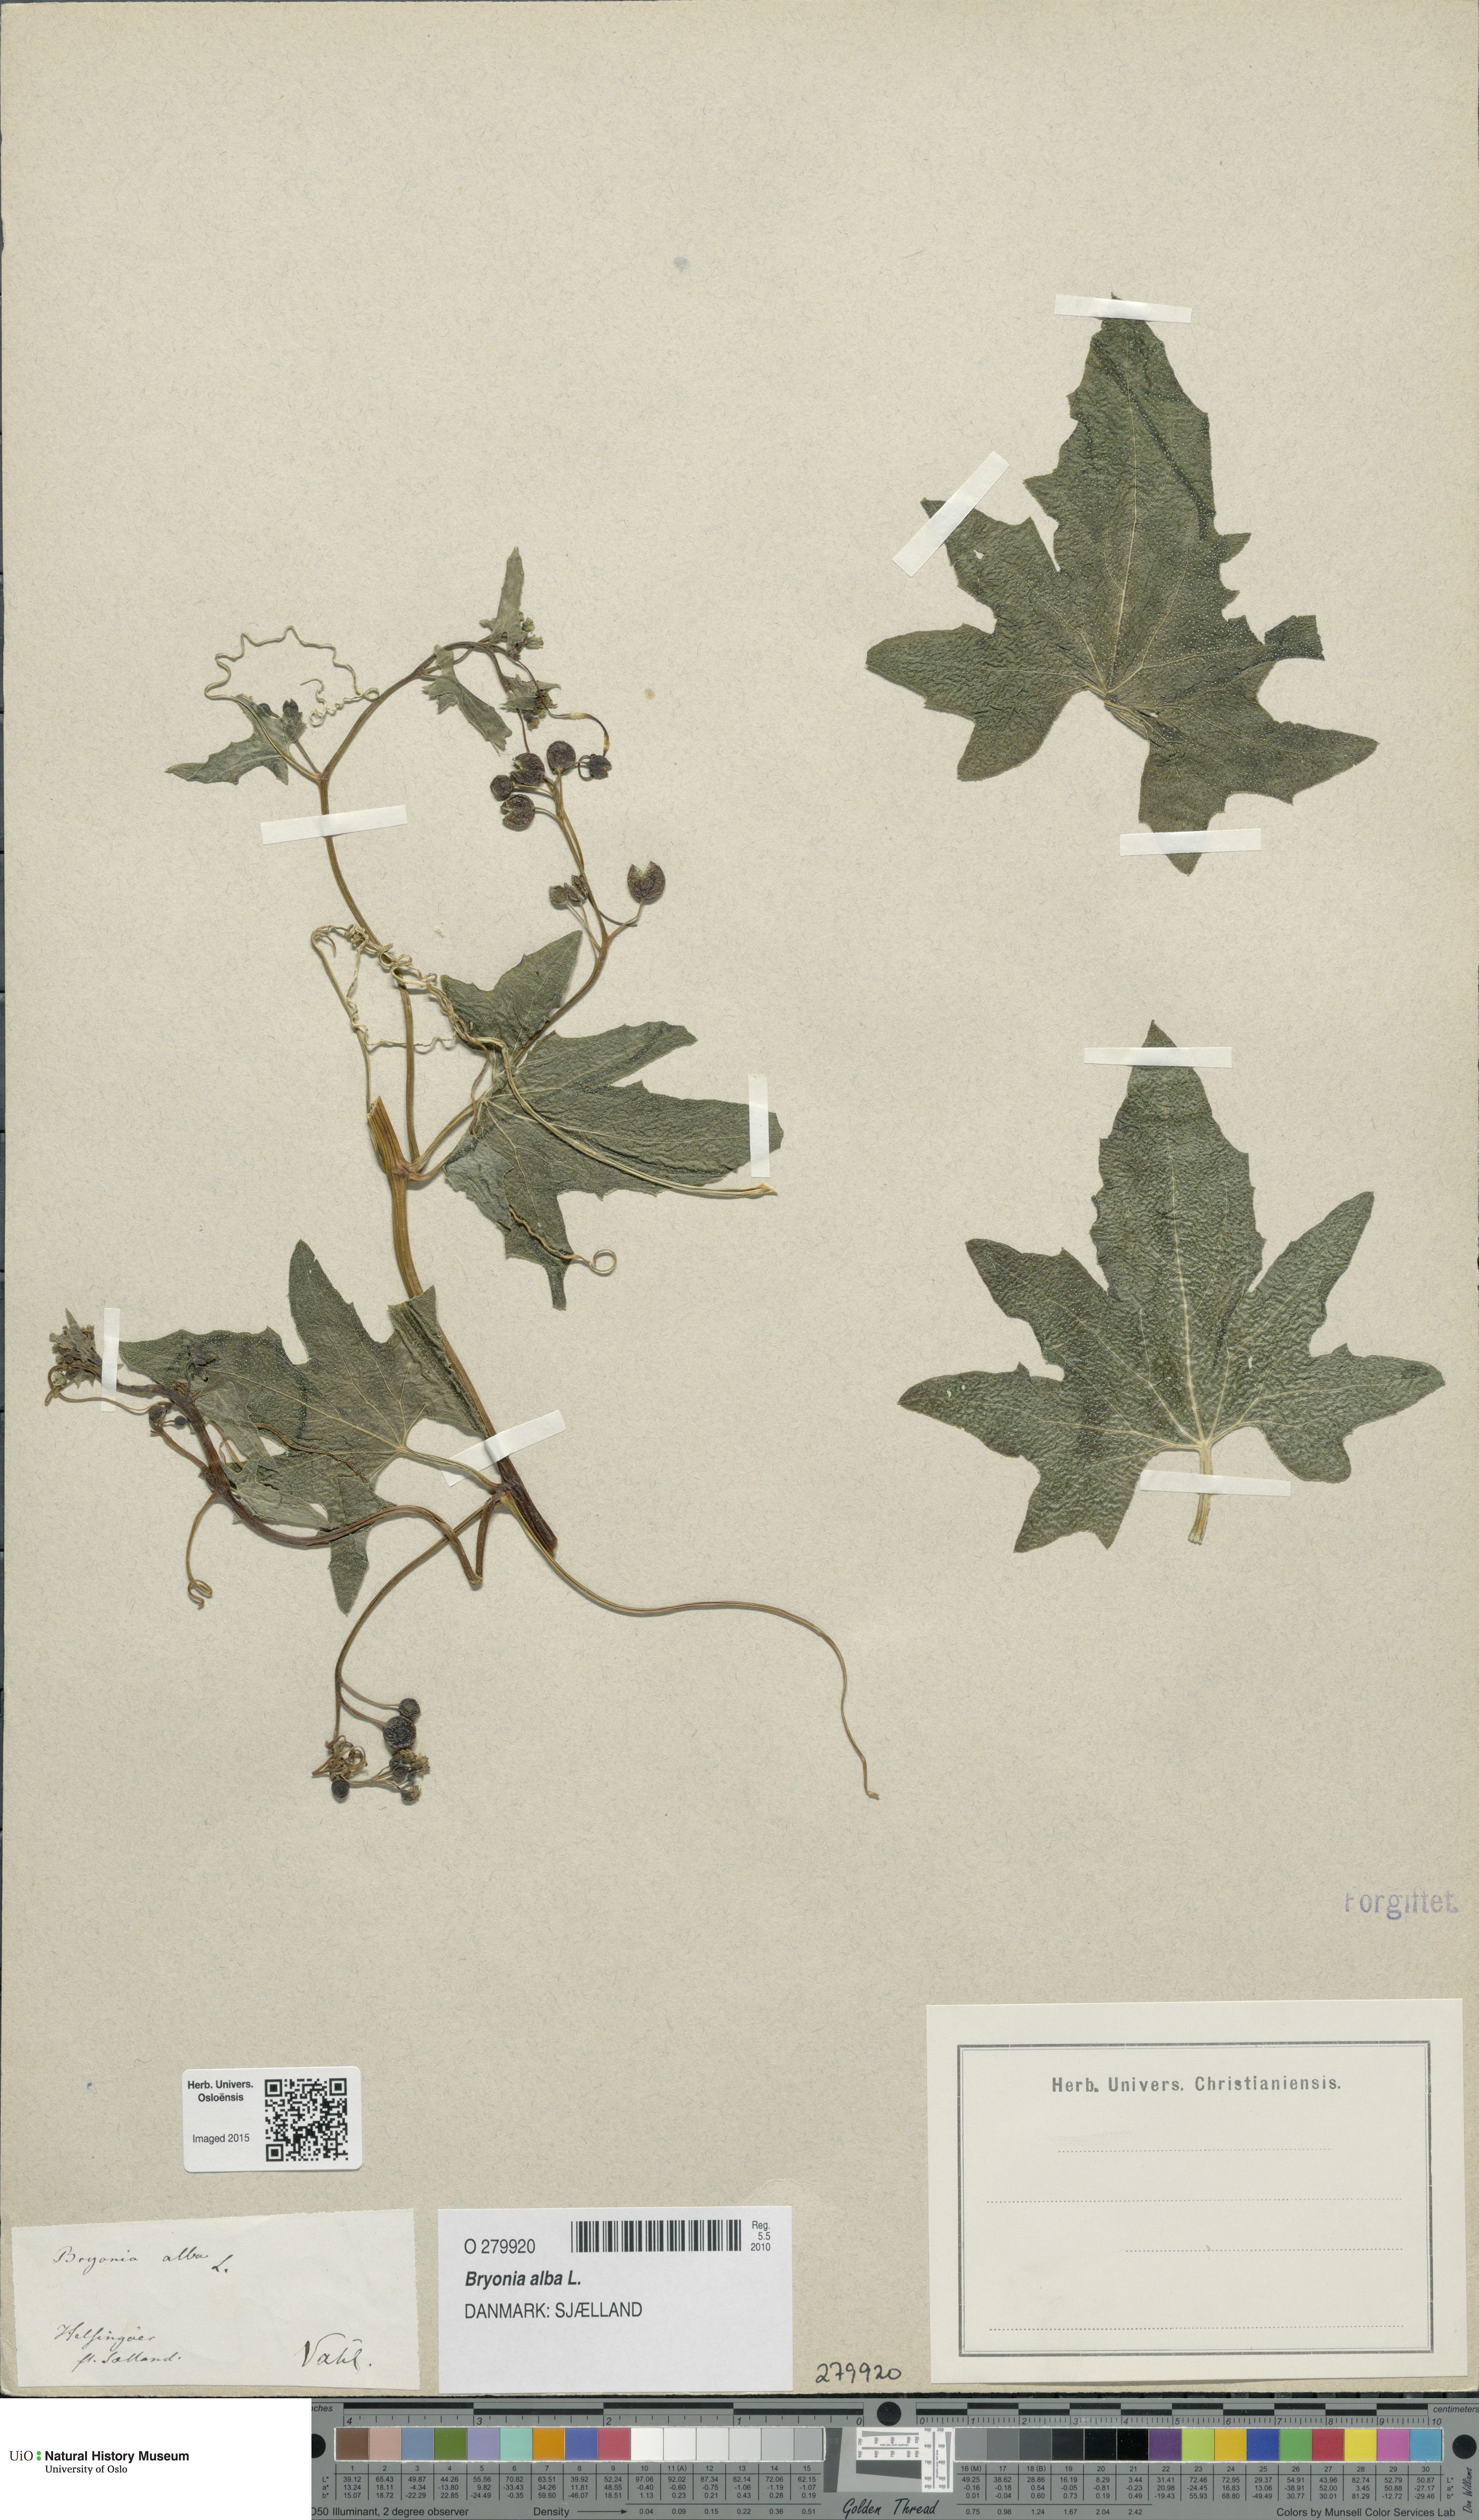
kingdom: Plantae
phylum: Tracheophyta
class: Magnoliopsida
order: Cucurbitales
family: Cucurbitaceae
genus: Bryonia
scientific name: Bryonia alba
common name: White bryony
